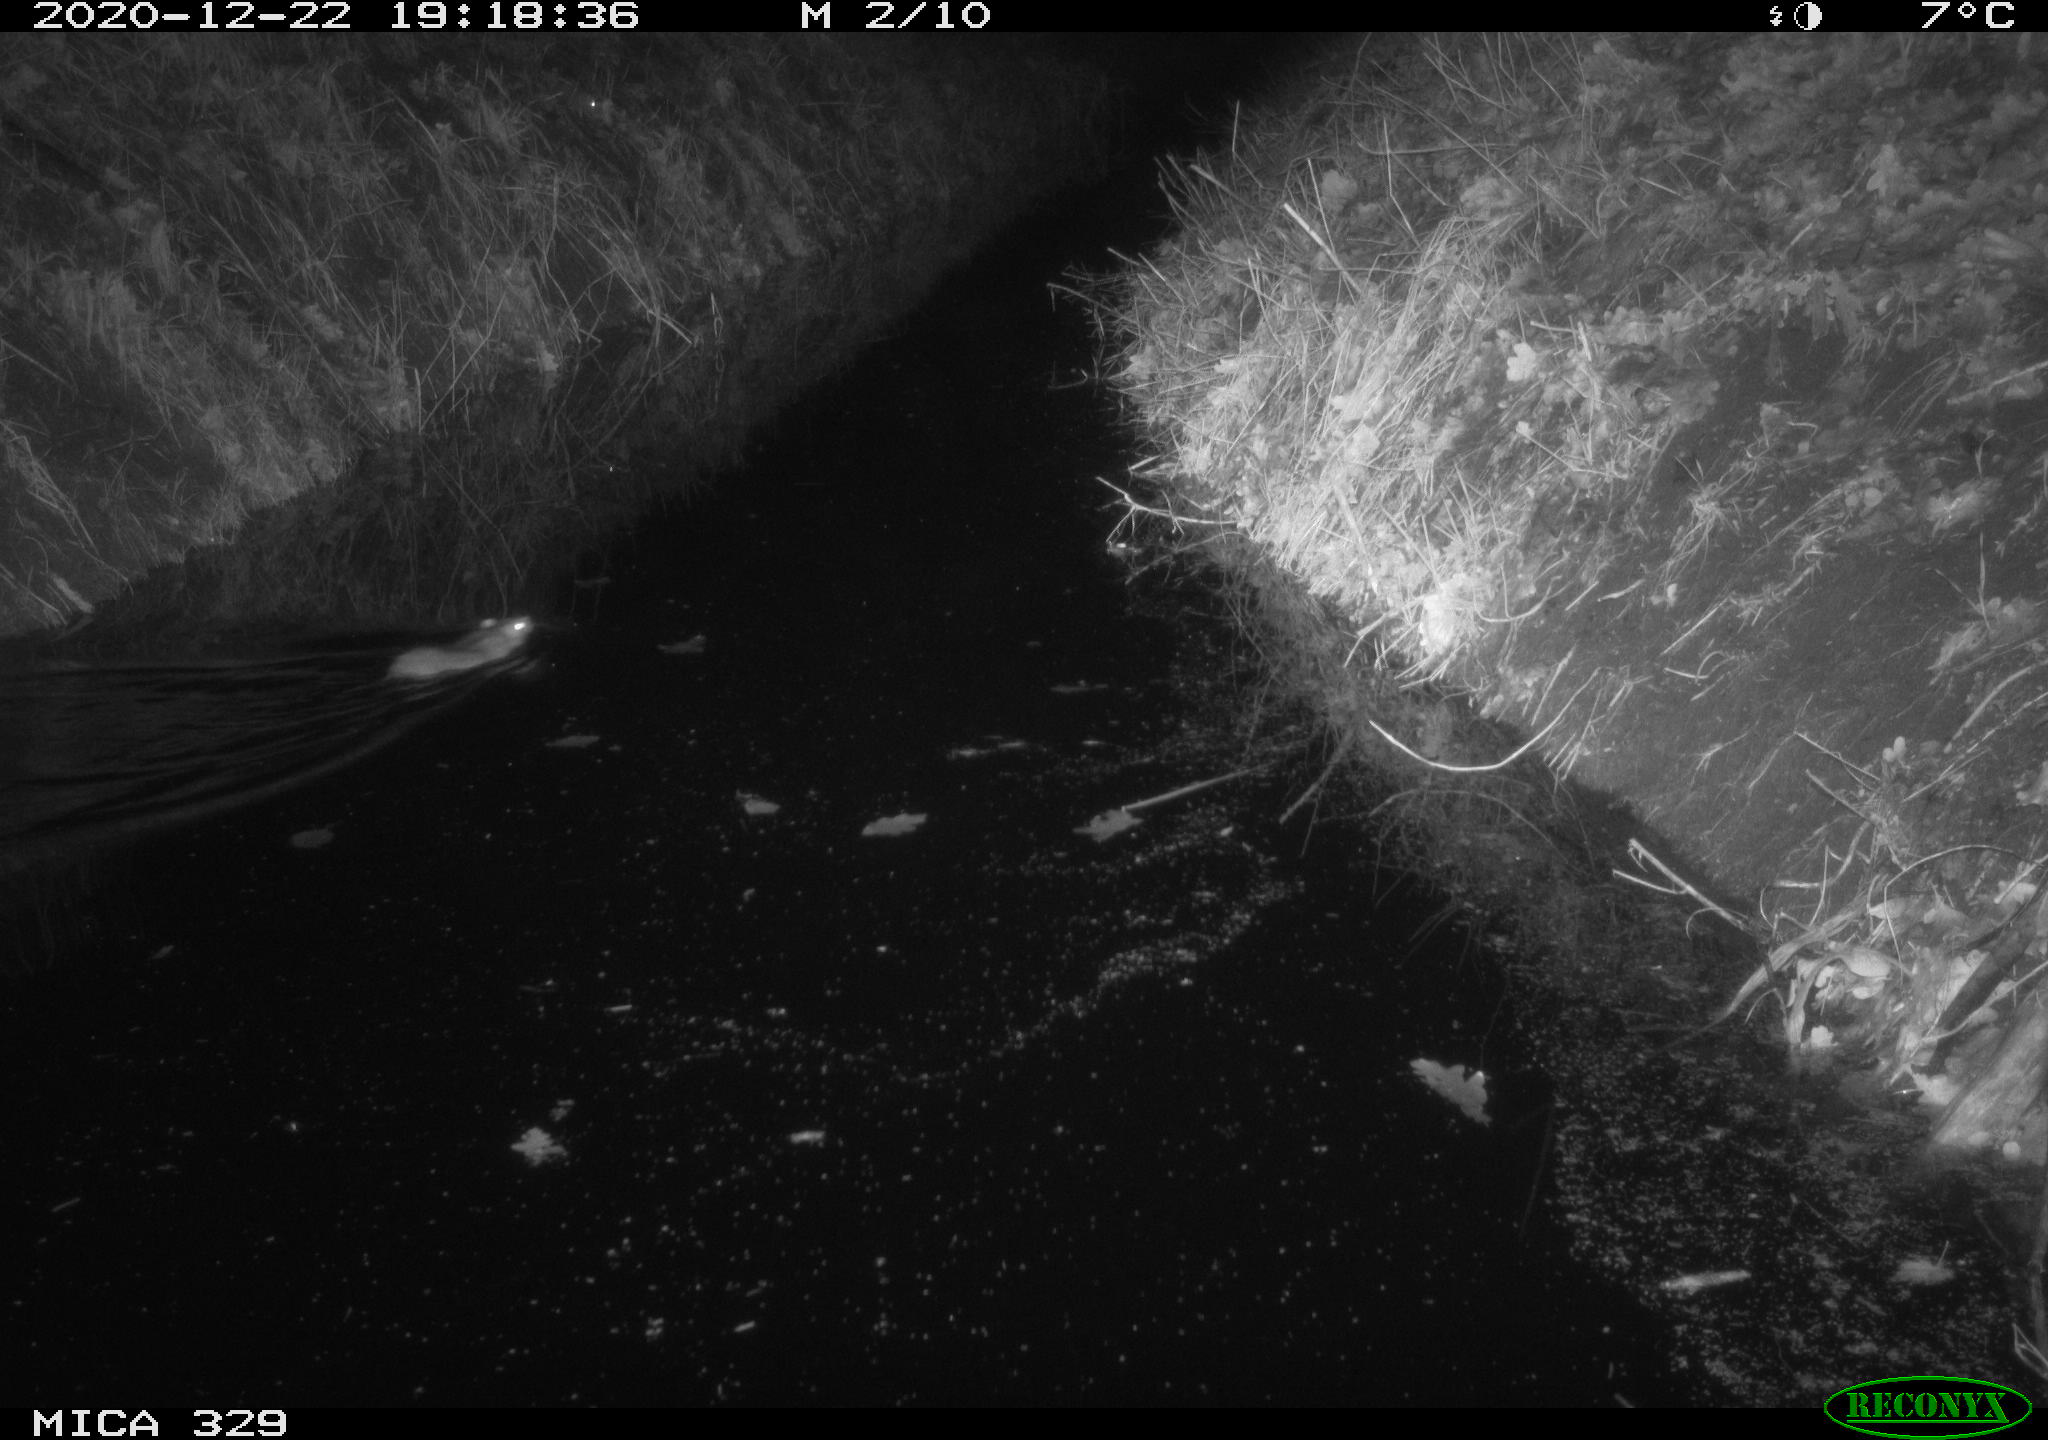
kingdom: Animalia
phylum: Chordata
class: Mammalia
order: Rodentia
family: Muridae
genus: Rattus
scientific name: Rattus norvegicus
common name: Brown rat
